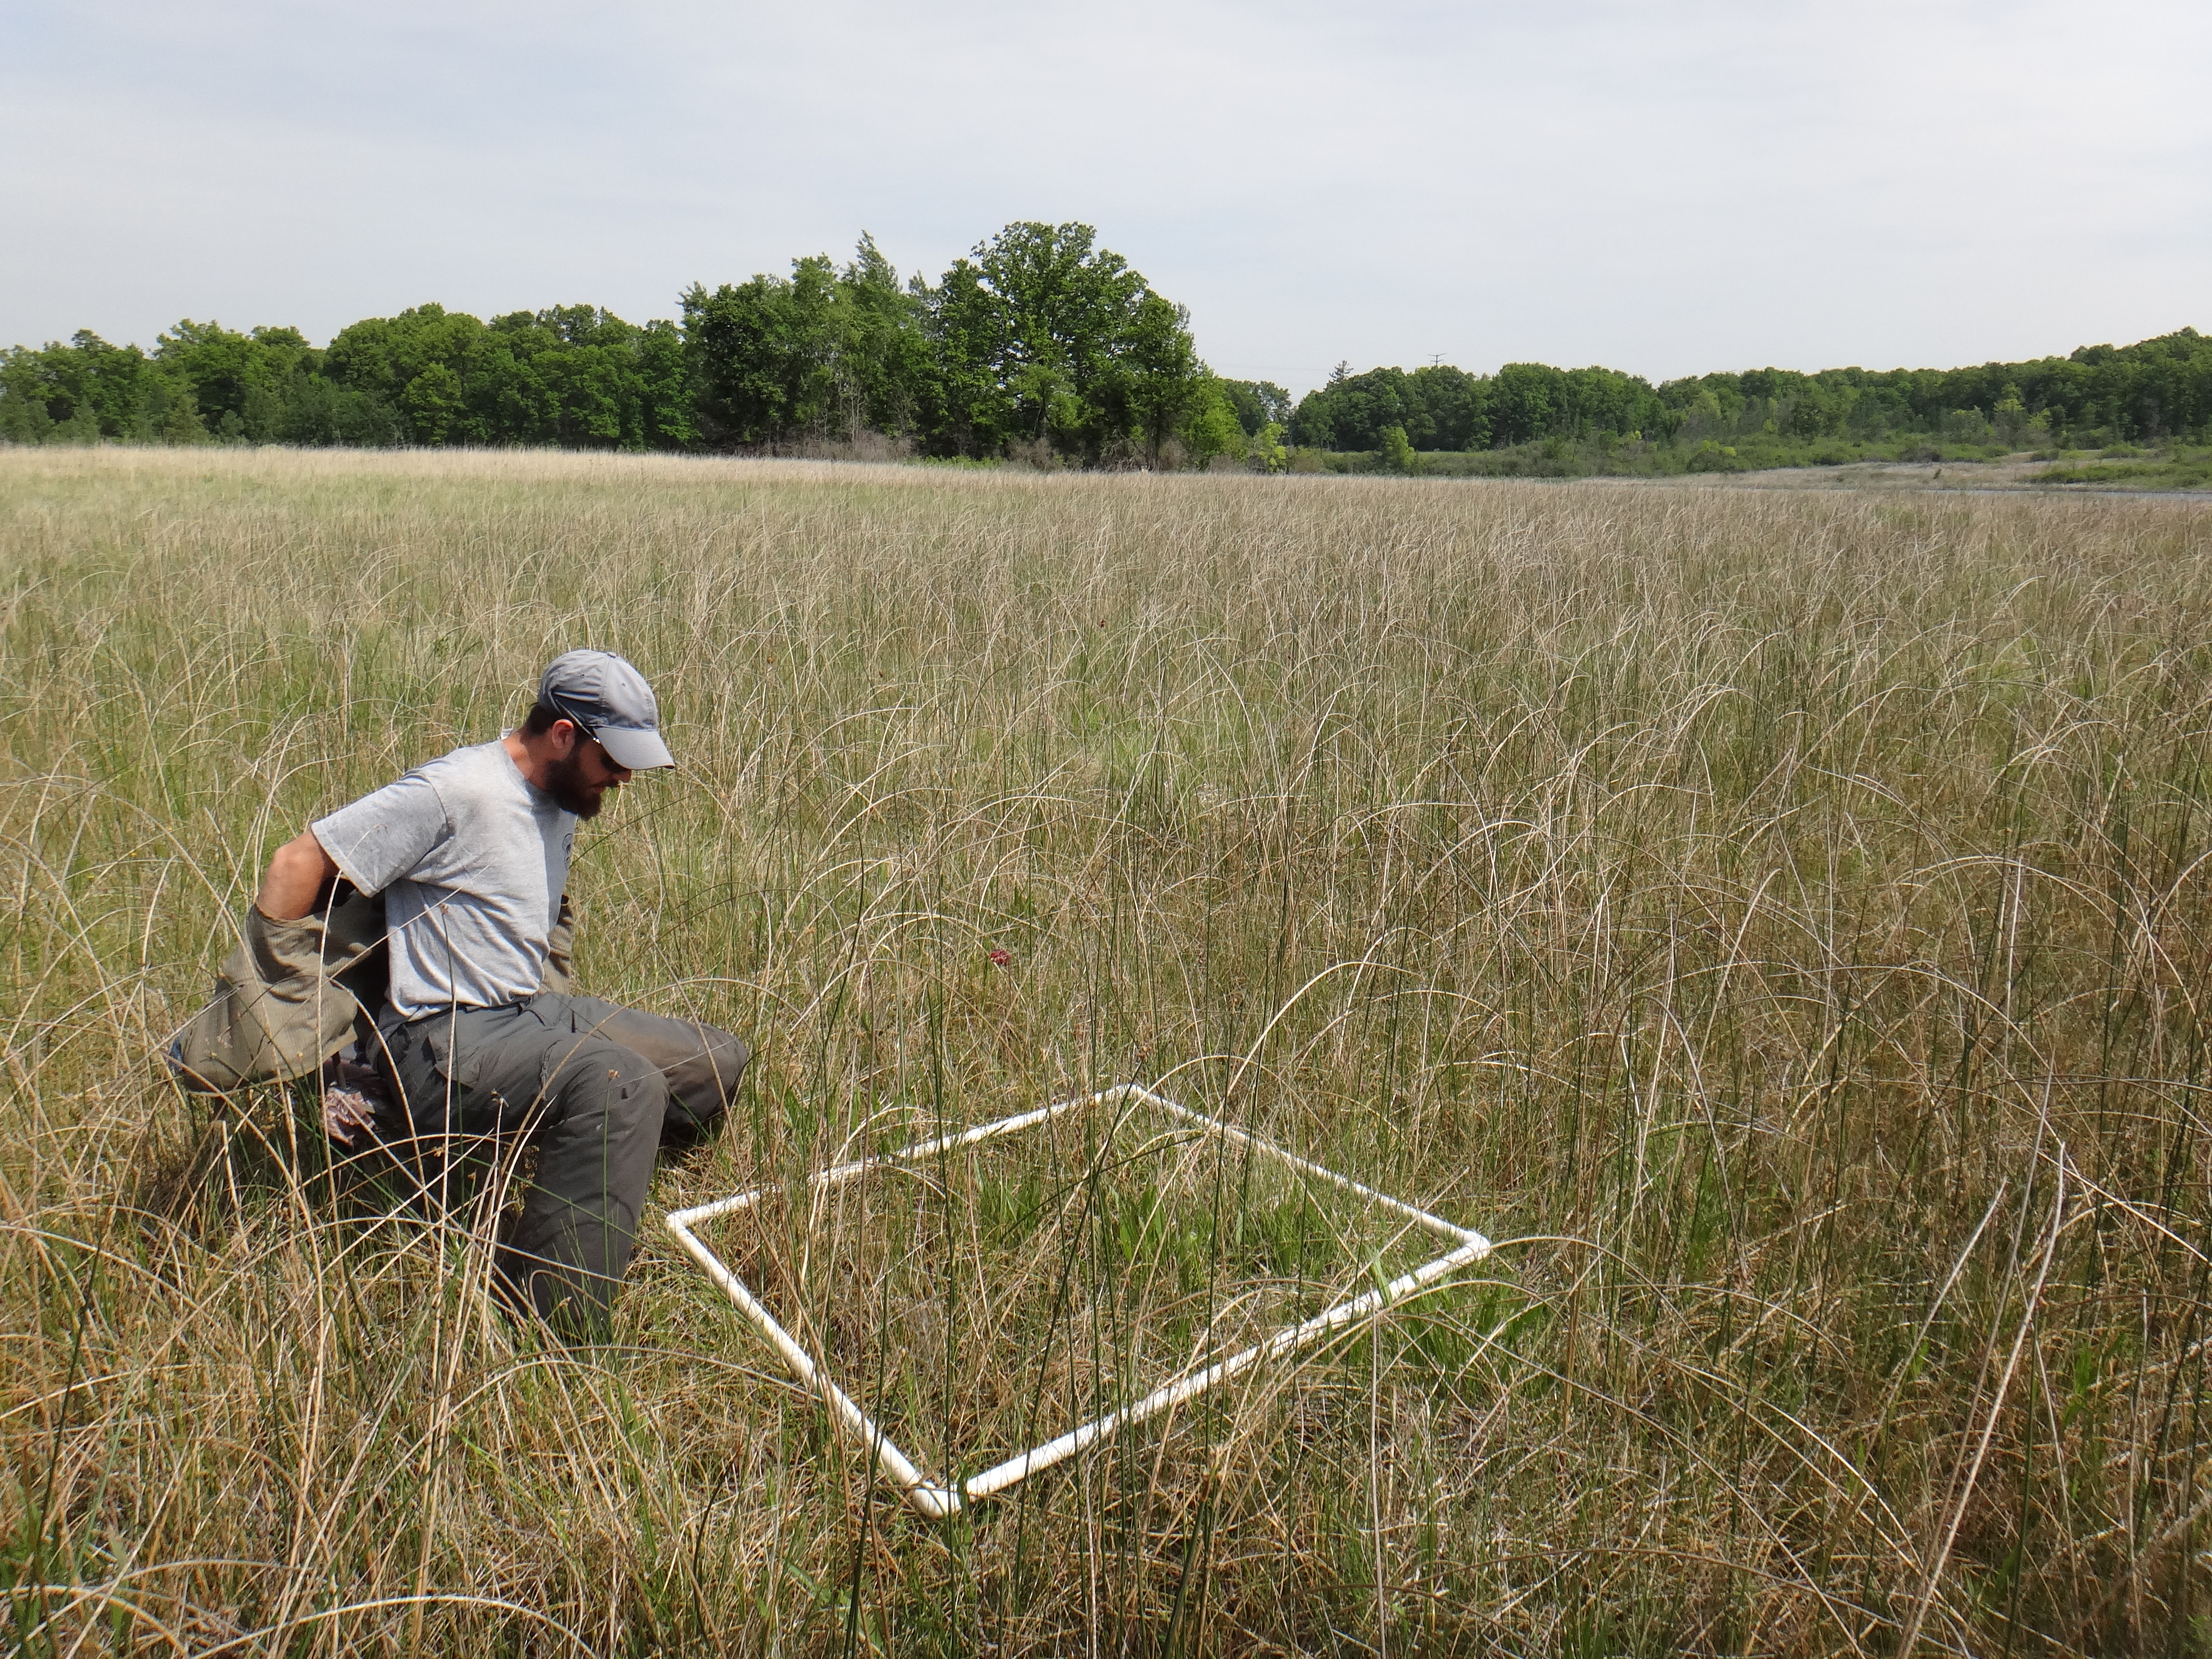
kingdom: Plantae
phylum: Tracheophyta
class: Liliopsida
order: Poales
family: Cyperaceae
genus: Eleocharis
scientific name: Eleocharis rostellata
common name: Walking sedge
